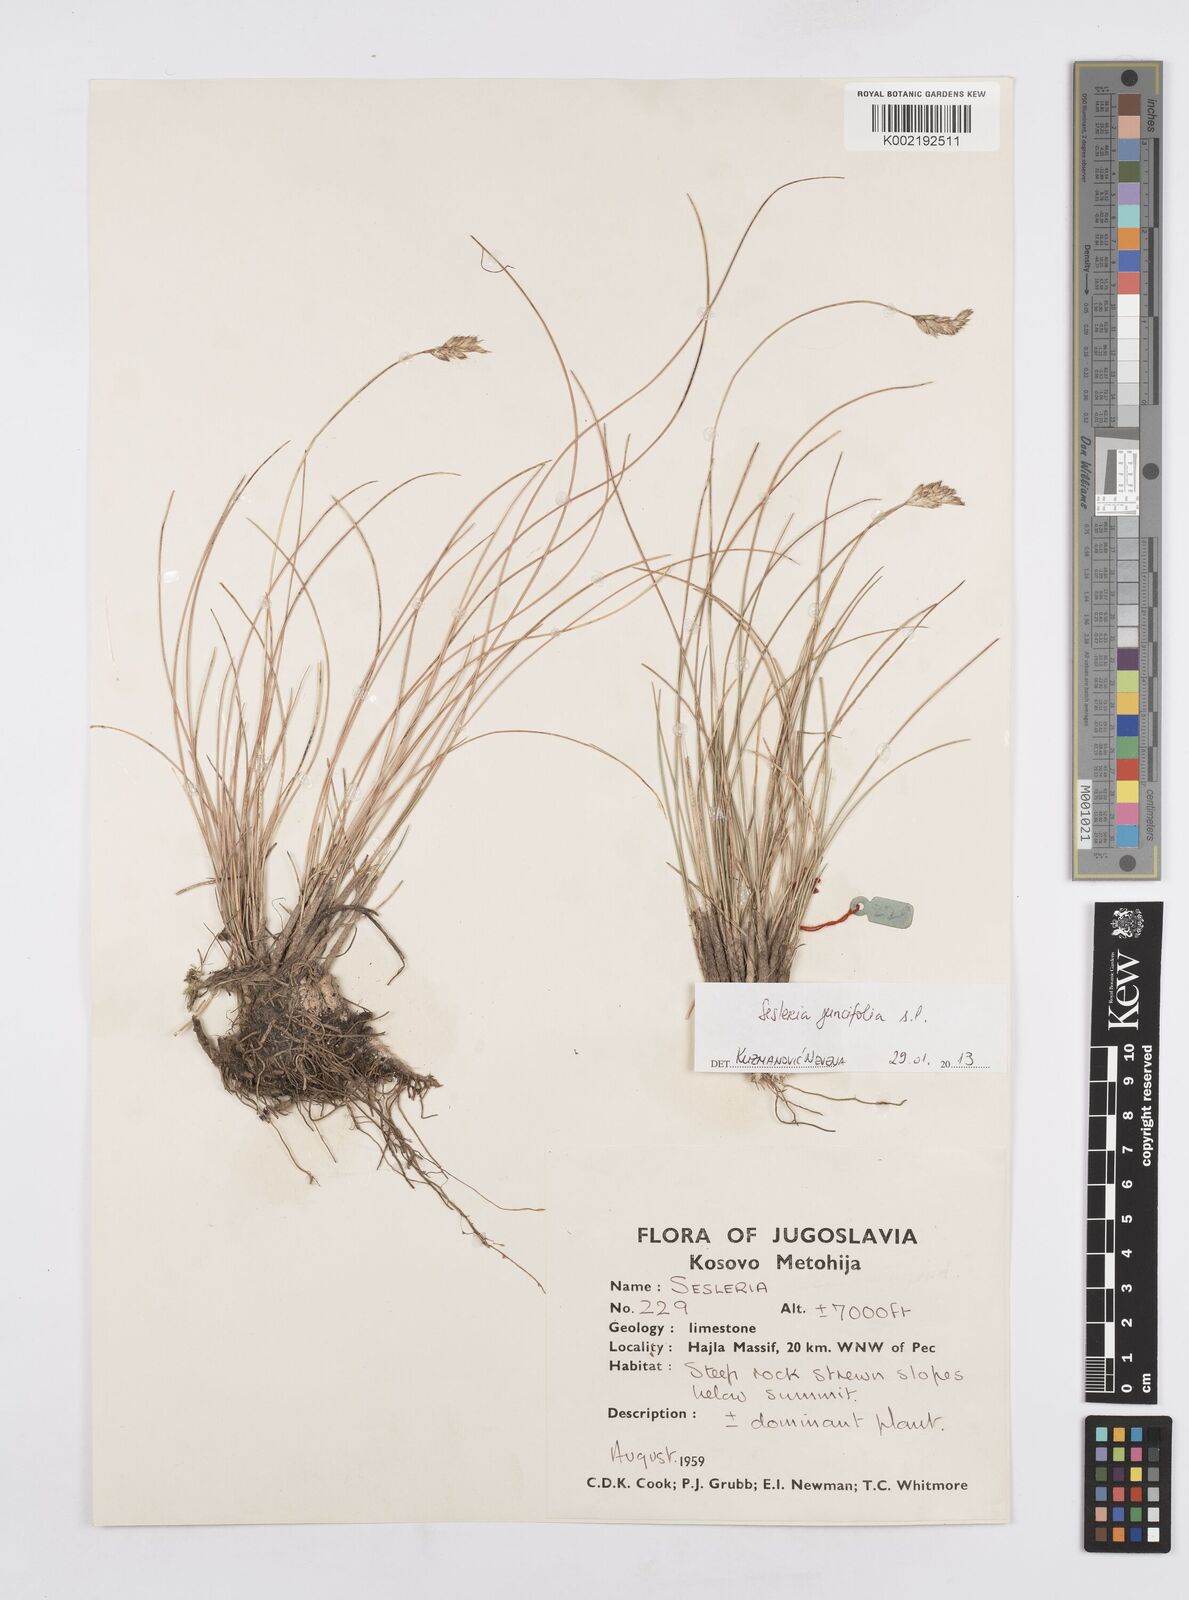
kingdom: Plantae
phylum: Tracheophyta
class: Liliopsida
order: Poales
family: Poaceae
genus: Sesleria
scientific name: Sesleria juncifolia
